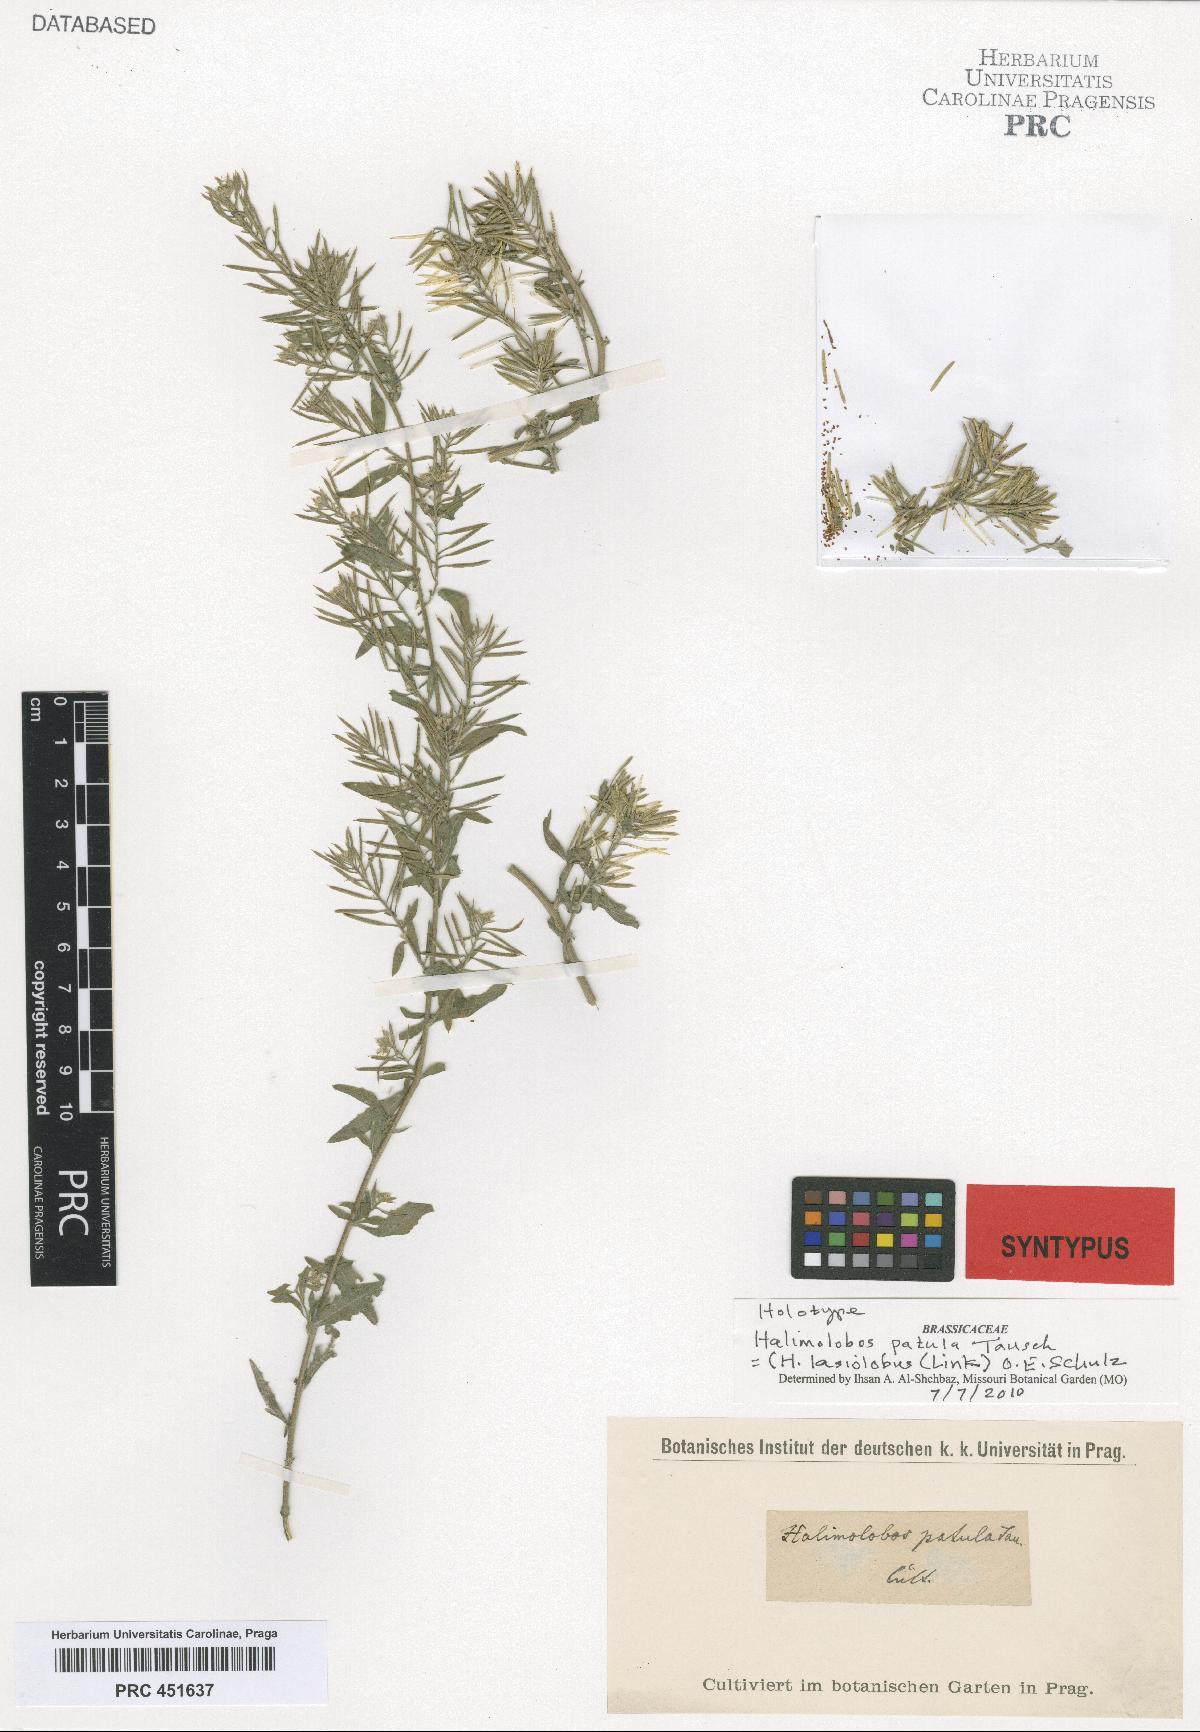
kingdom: Plantae
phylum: Tracheophyta
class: Magnoliopsida
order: Brassicales
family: Brassicaceae
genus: Halimolobos
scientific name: Halimolobos lasiolobus
